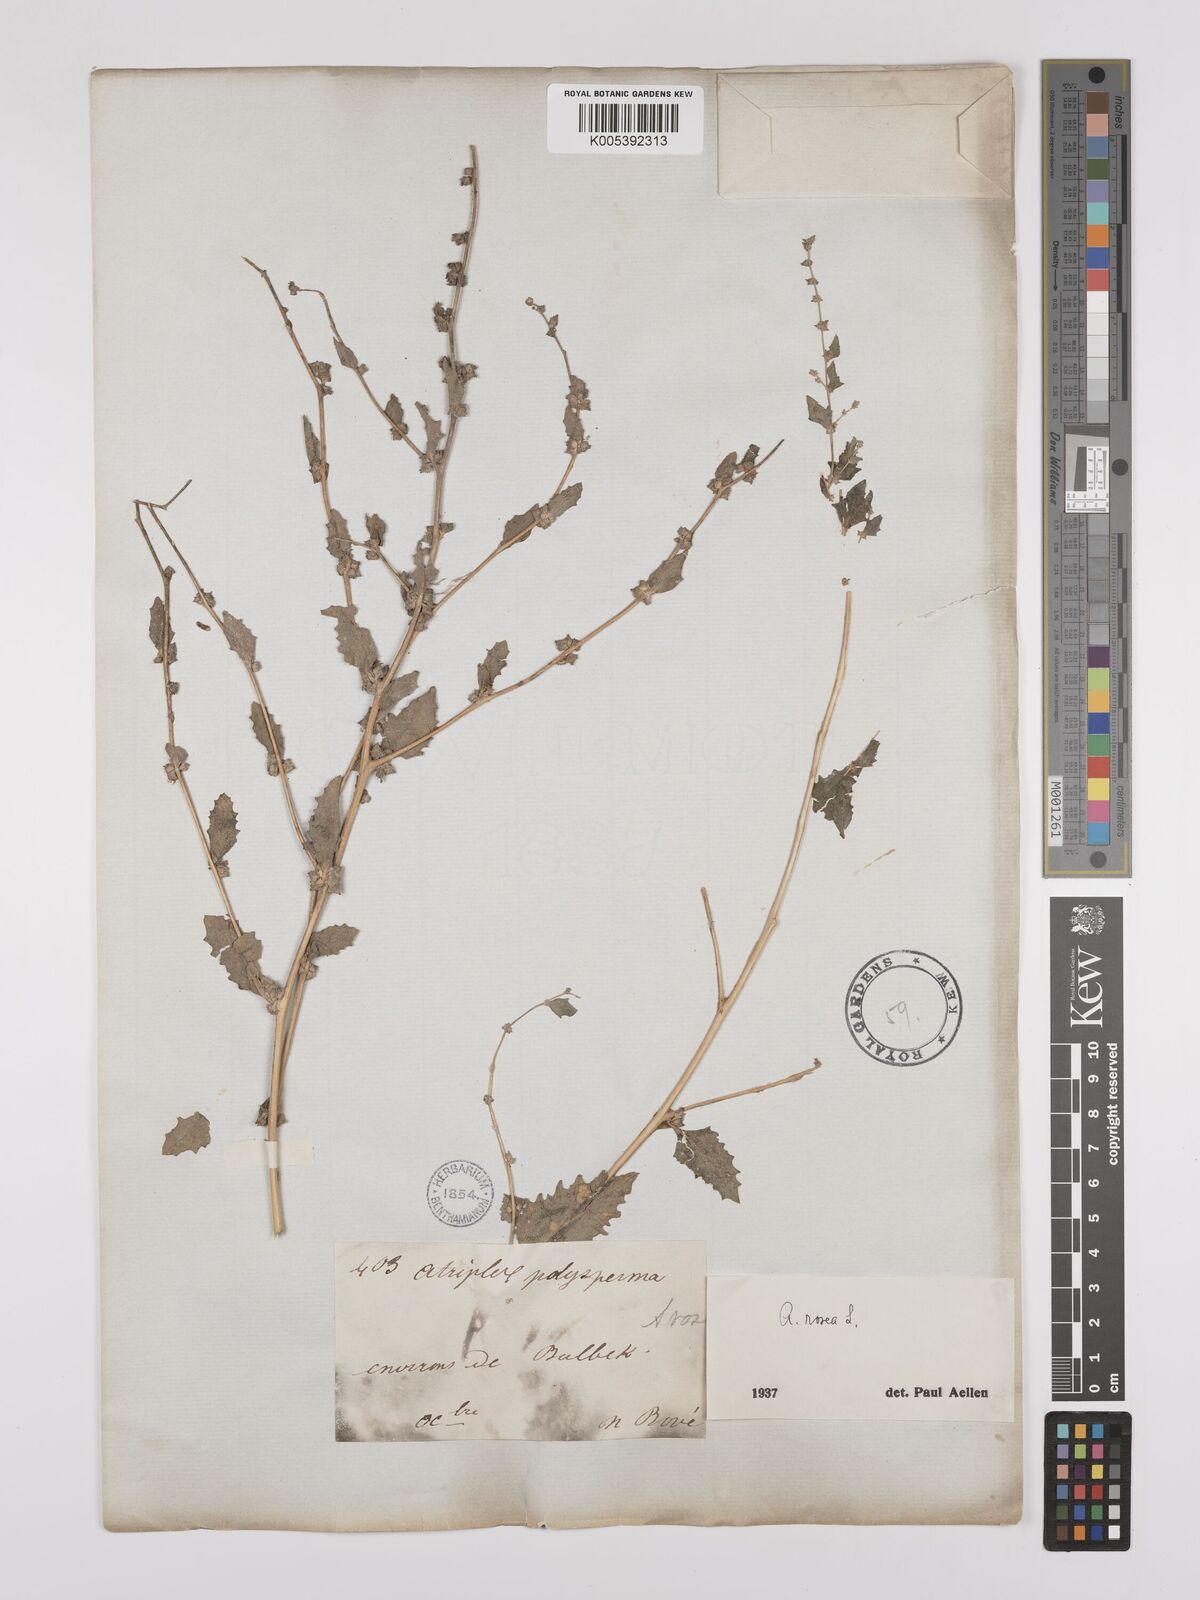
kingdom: Plantae
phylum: Tracheophyta
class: Magnoliopsida
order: Caryophyllales
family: Amaranthaceae
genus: Atriplex
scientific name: Atriplex
